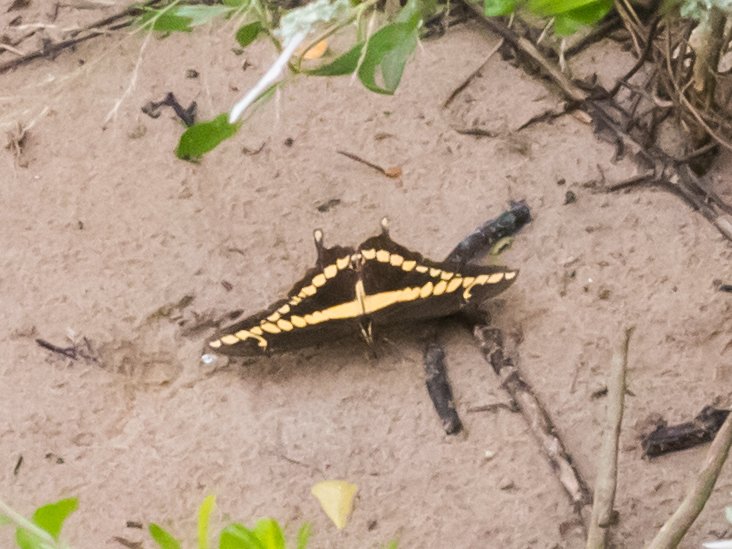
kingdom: Animalia
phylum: Arthropoda
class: Insecta
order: Lepidoptera
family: Papilionidae
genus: Papilio
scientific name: Papilio rumiko
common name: Western Giant Swallowtail
